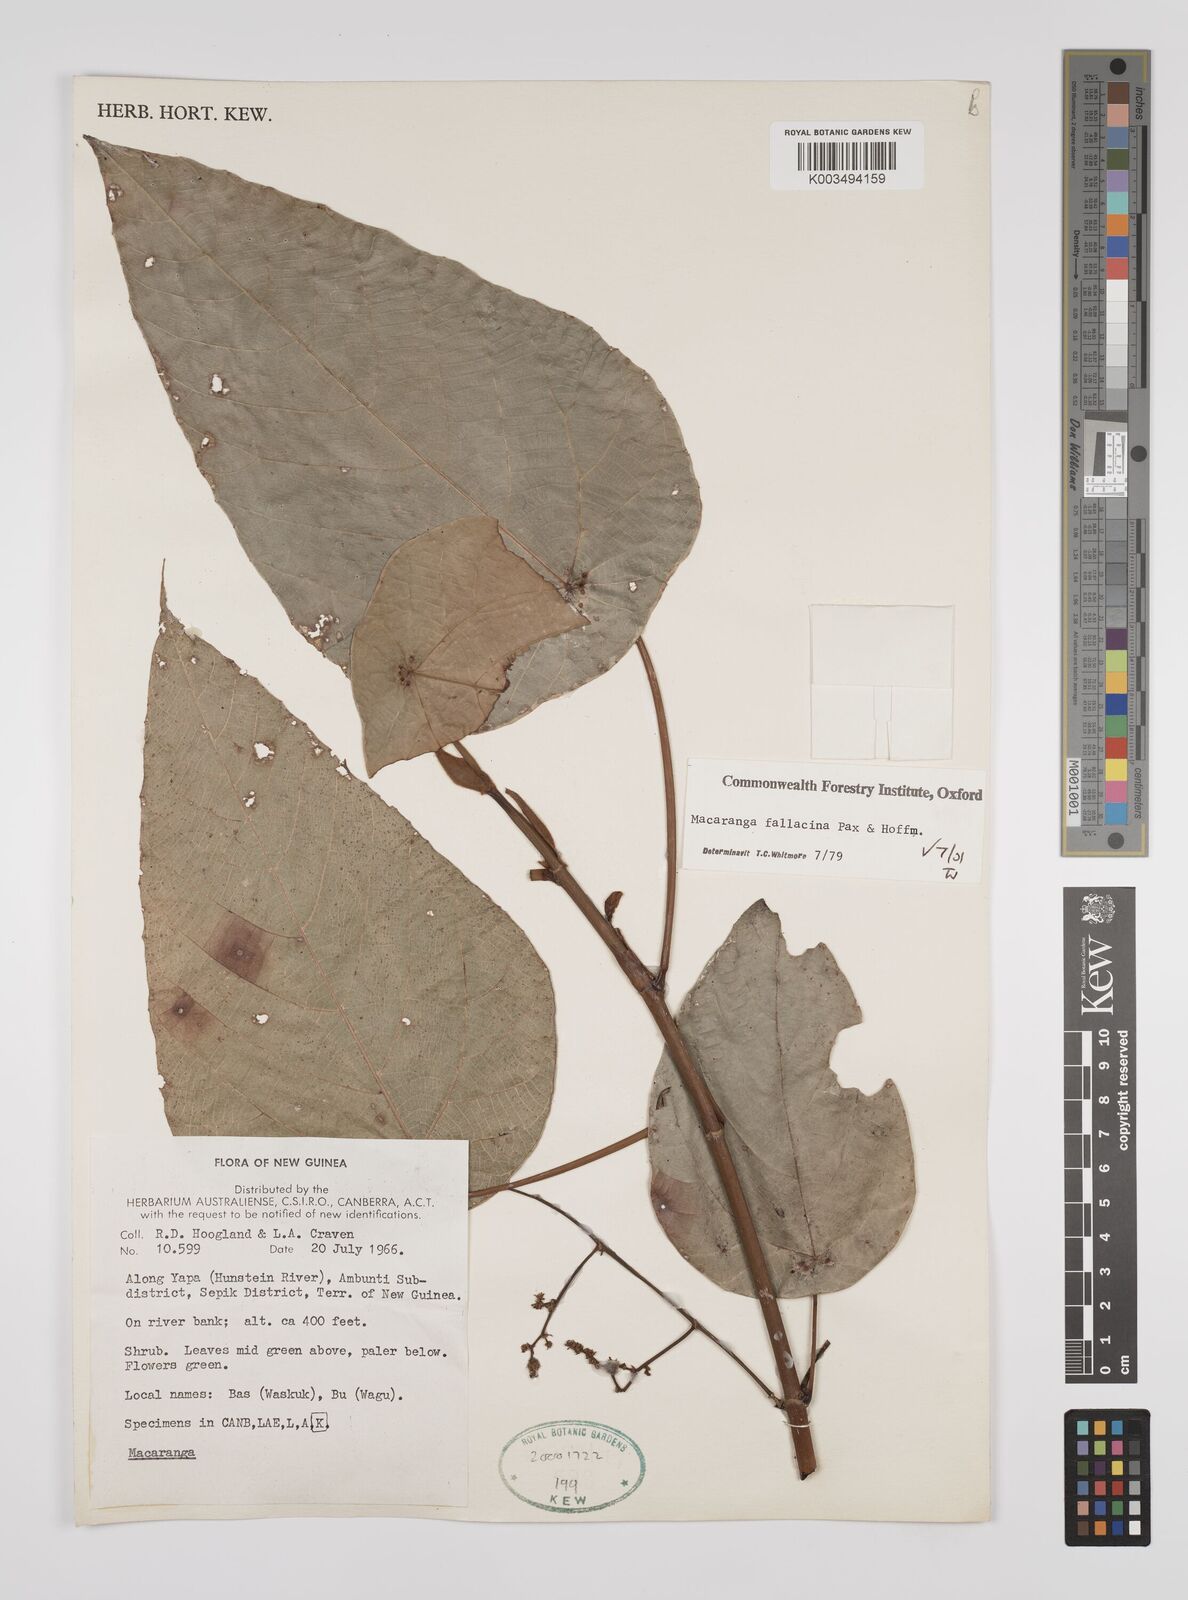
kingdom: Plantae
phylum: Tracheophyta
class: Magnoliopsida
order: Malpighiales
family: Euphorbiaceae
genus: Macaranga
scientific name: Macaranga fallacina
